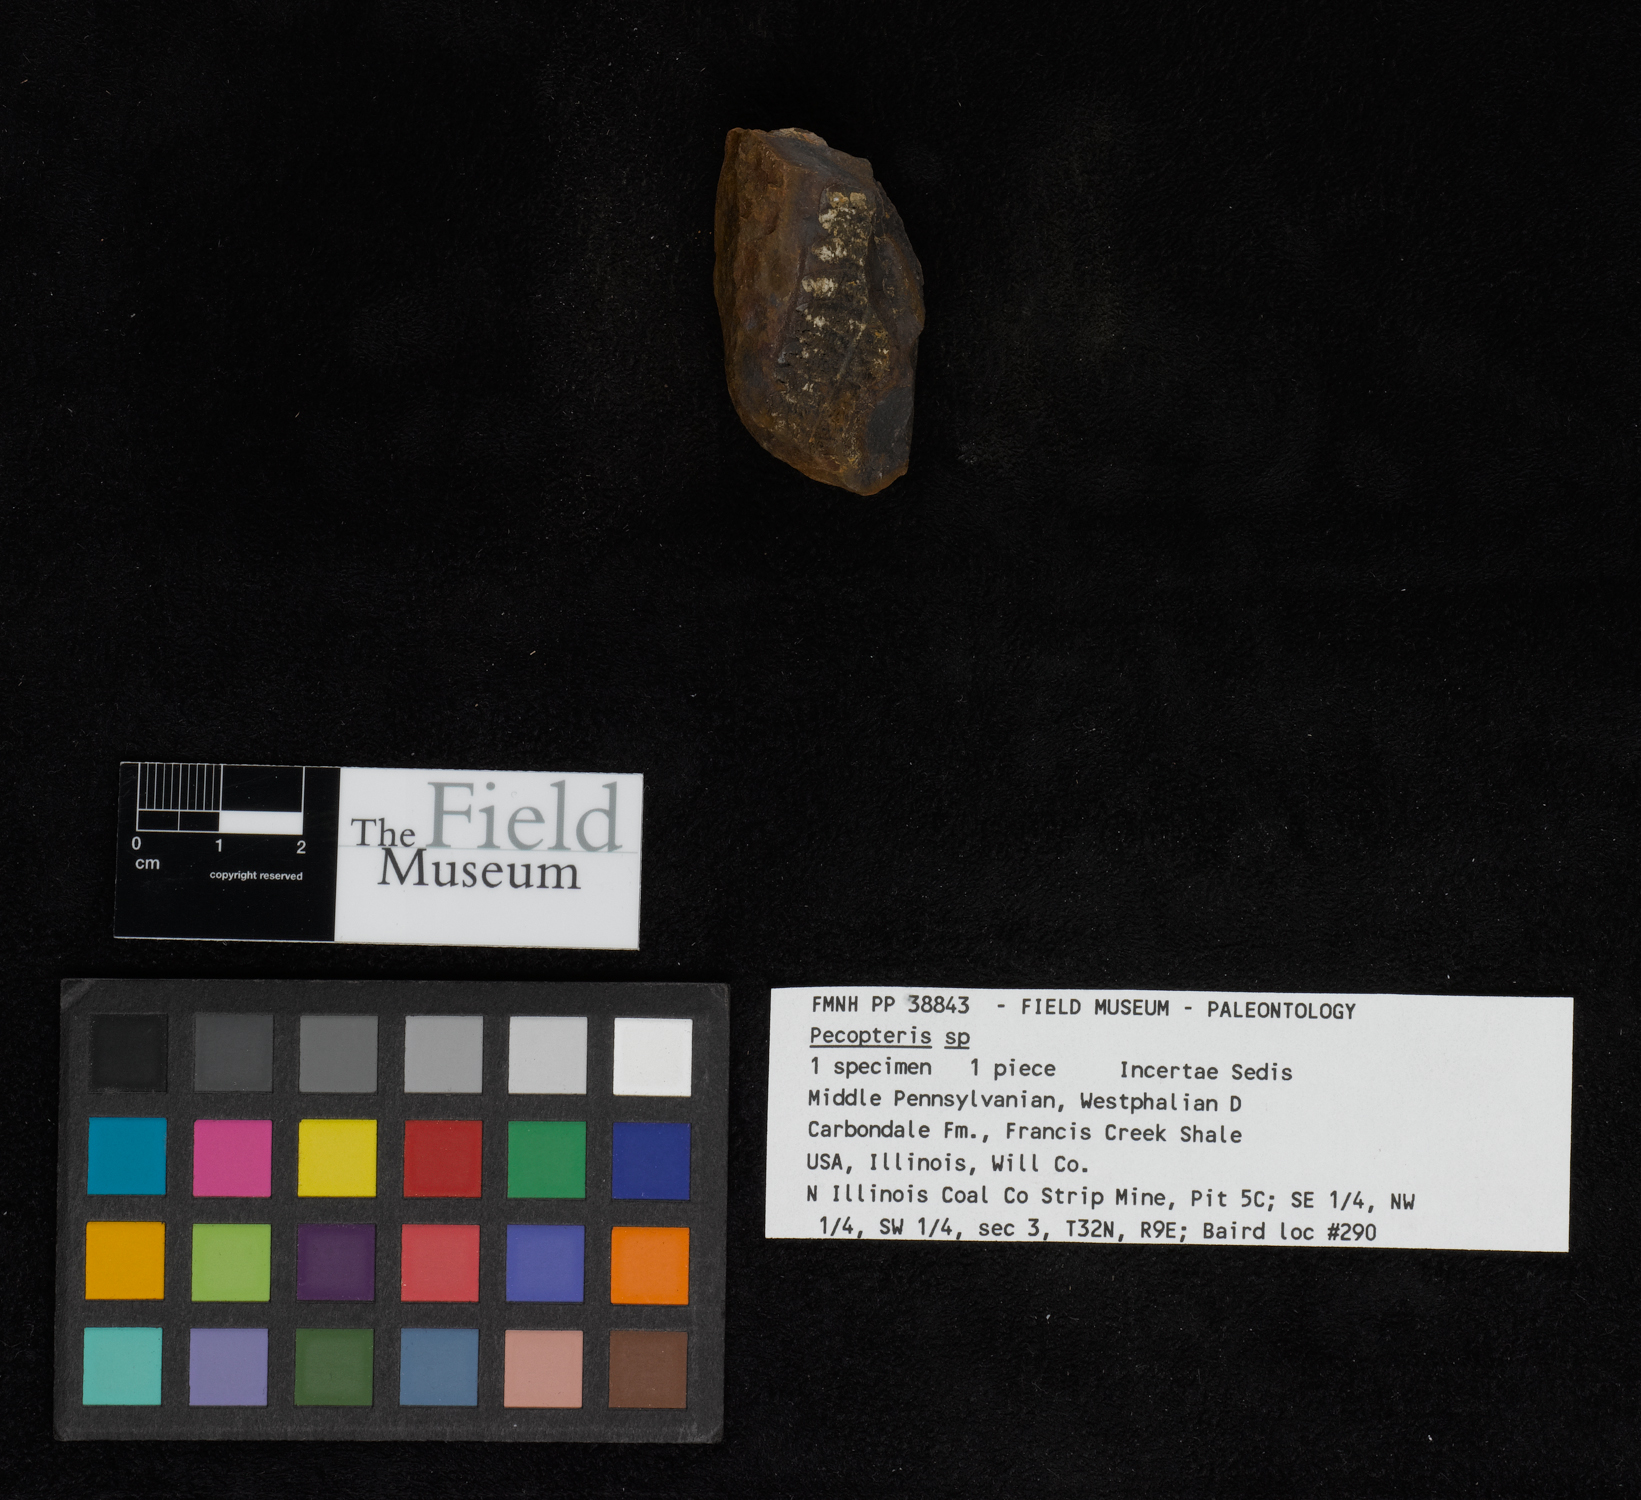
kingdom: Plantae
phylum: Tracheophyta
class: Polypodiopsida
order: Marattiales
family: Asterothecaceae
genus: Pecopteris
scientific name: Pecopteris
